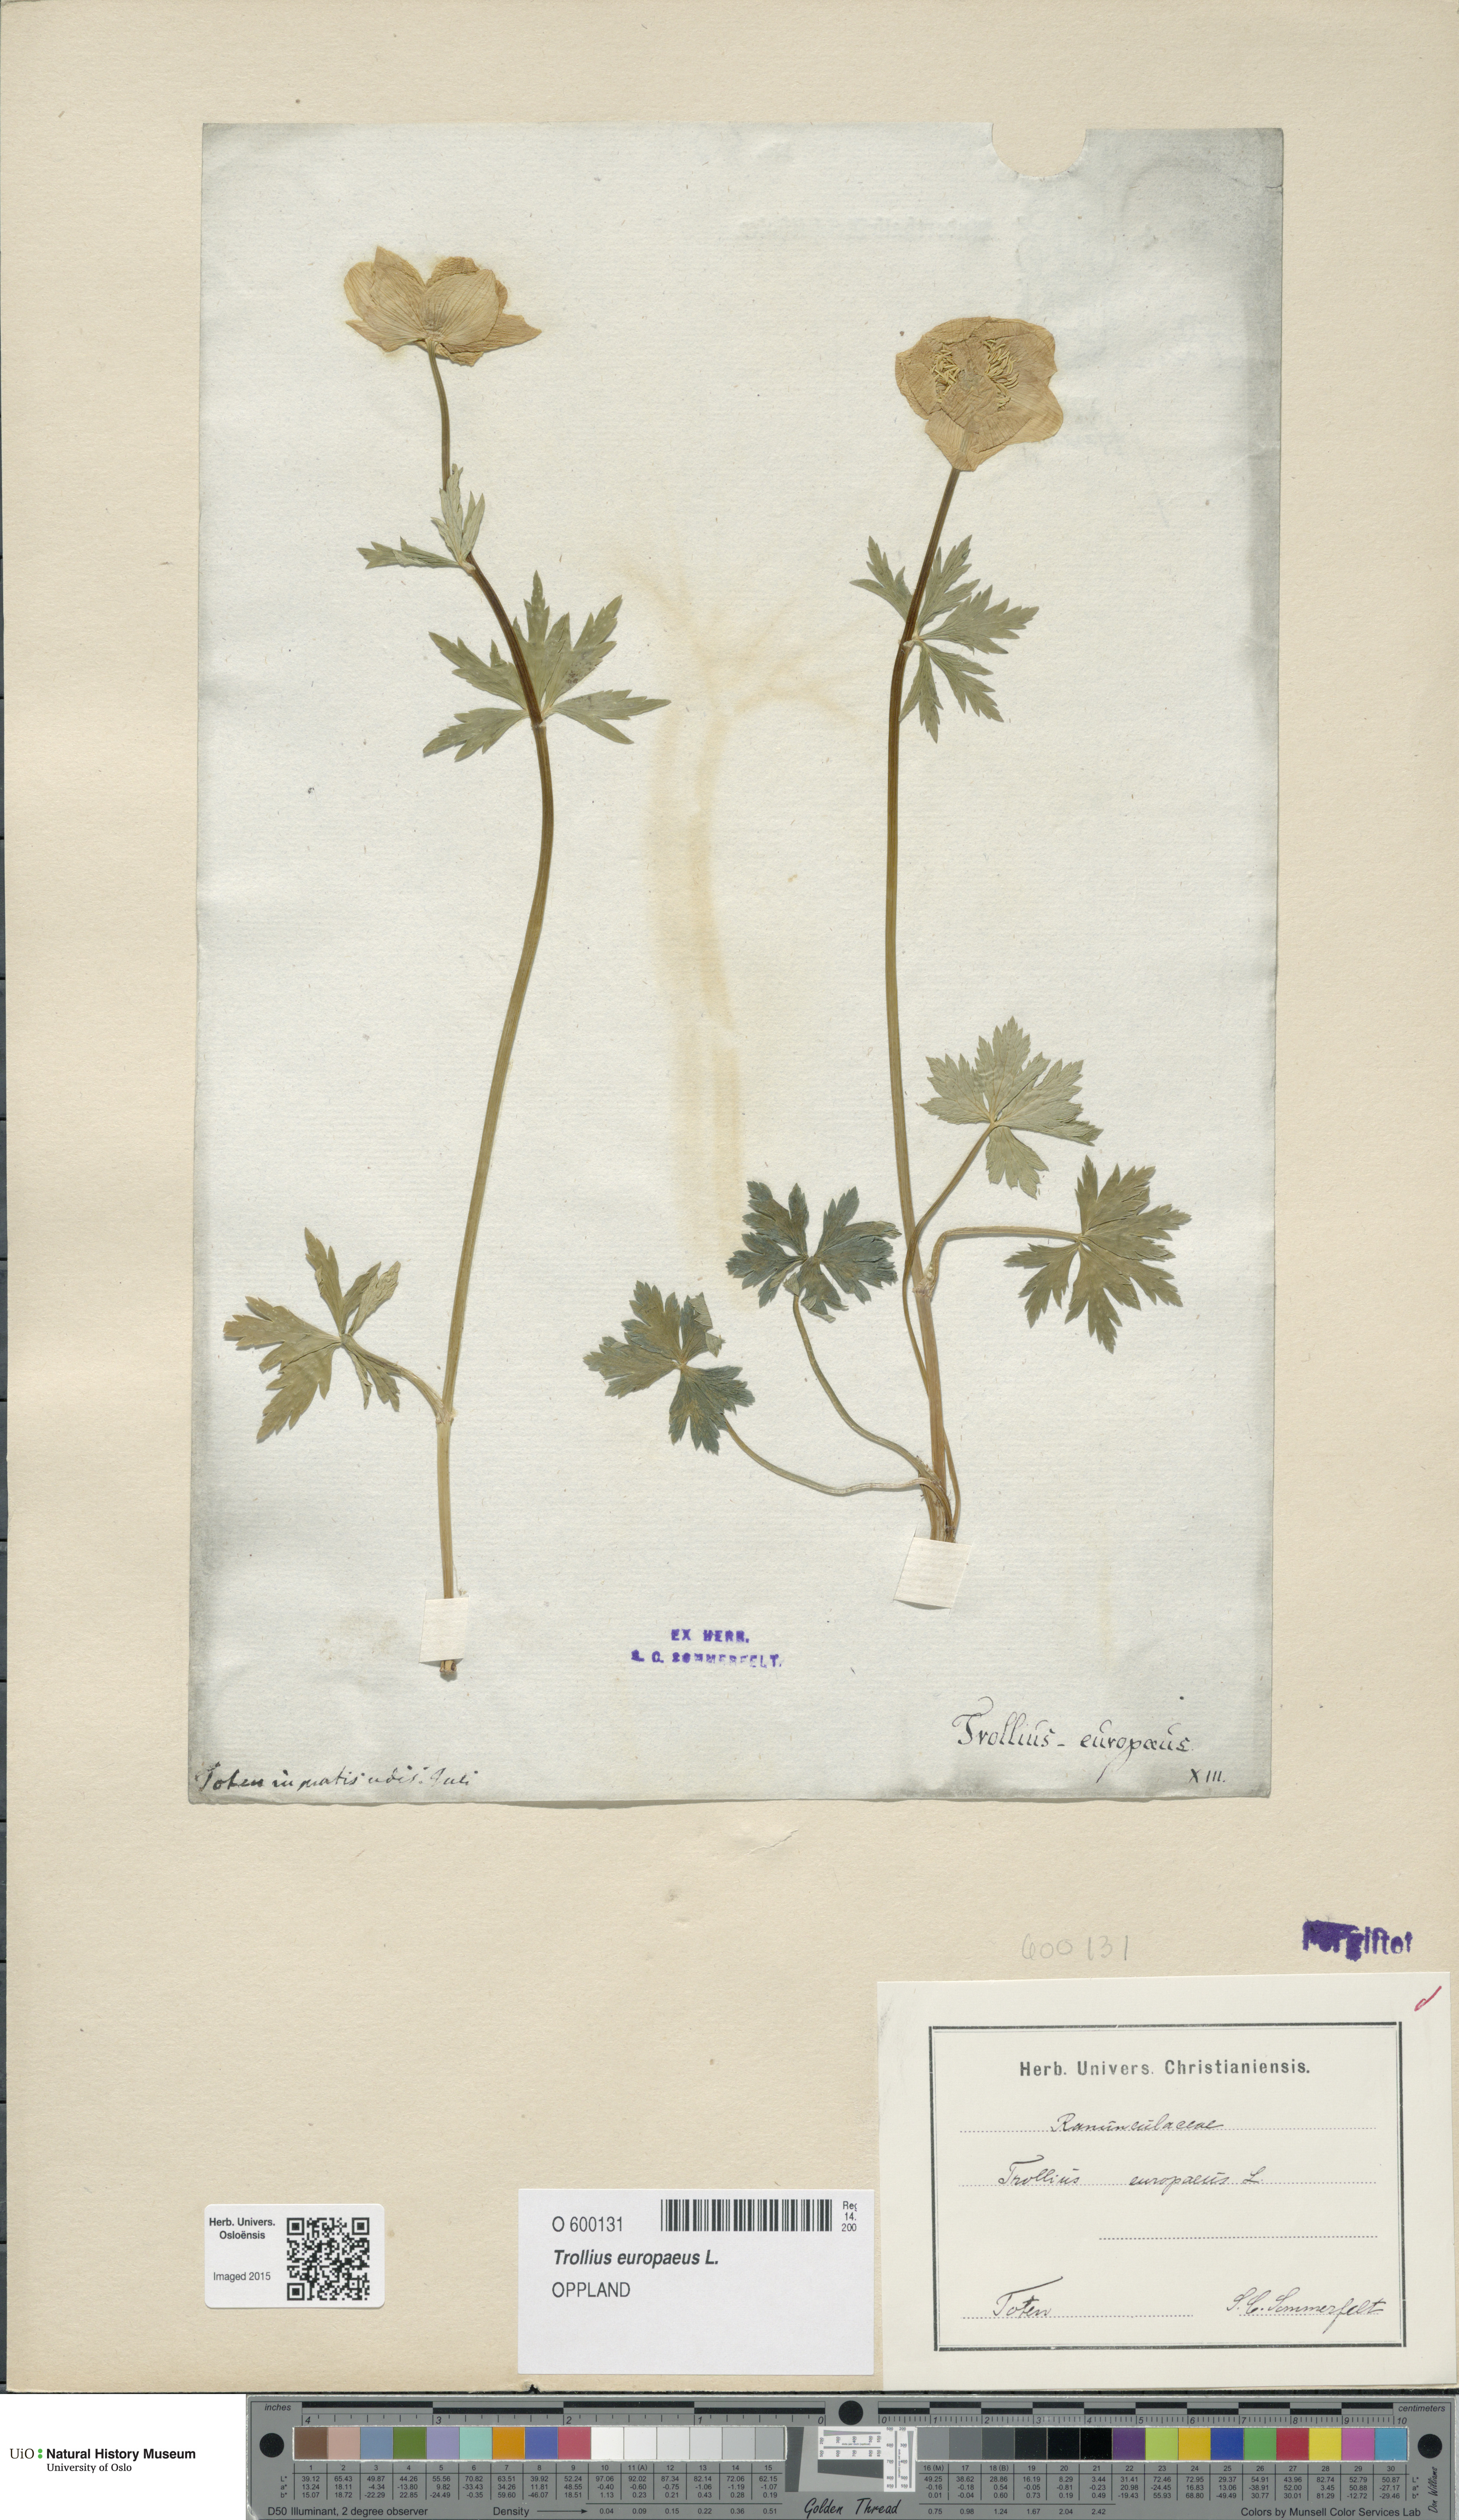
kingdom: Plantae
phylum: Tracheophyta
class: Magnoliopsida
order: Ranunculales
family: Ranunculaceae
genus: Trollius
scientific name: Trollius europaeus
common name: European globeflower
